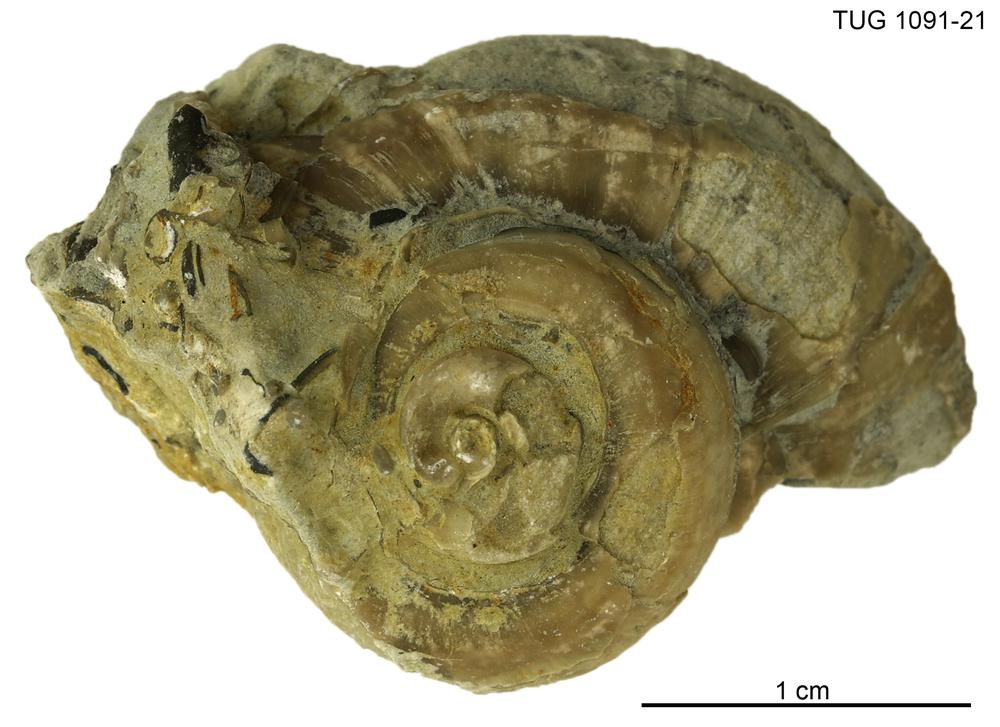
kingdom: Animalia
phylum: Mollusca
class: Gastropoda
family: Euomphalidae
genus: Poleumita
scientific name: Poleumita
